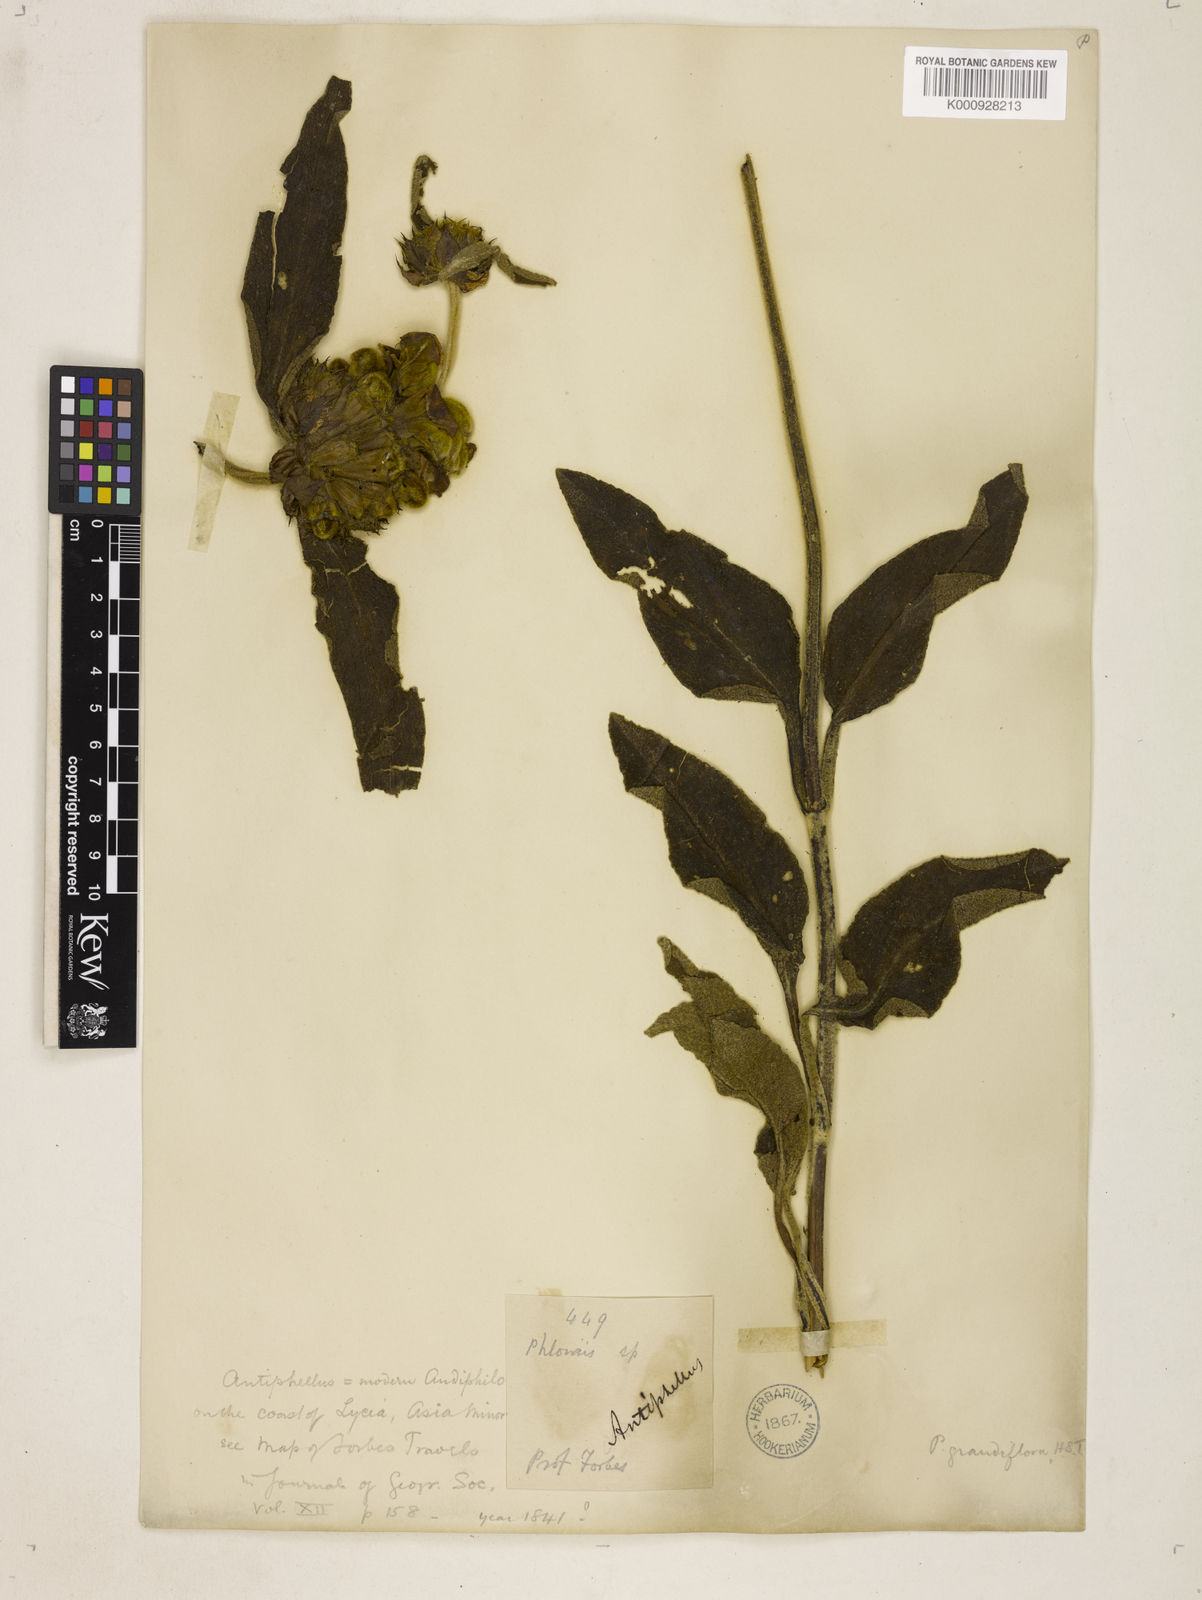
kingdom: Plantae
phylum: Tracheophyta
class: Magnoliopsida
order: Lamiales
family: Lamiaceae
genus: Phlomis
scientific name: Phlomis grandiflora
